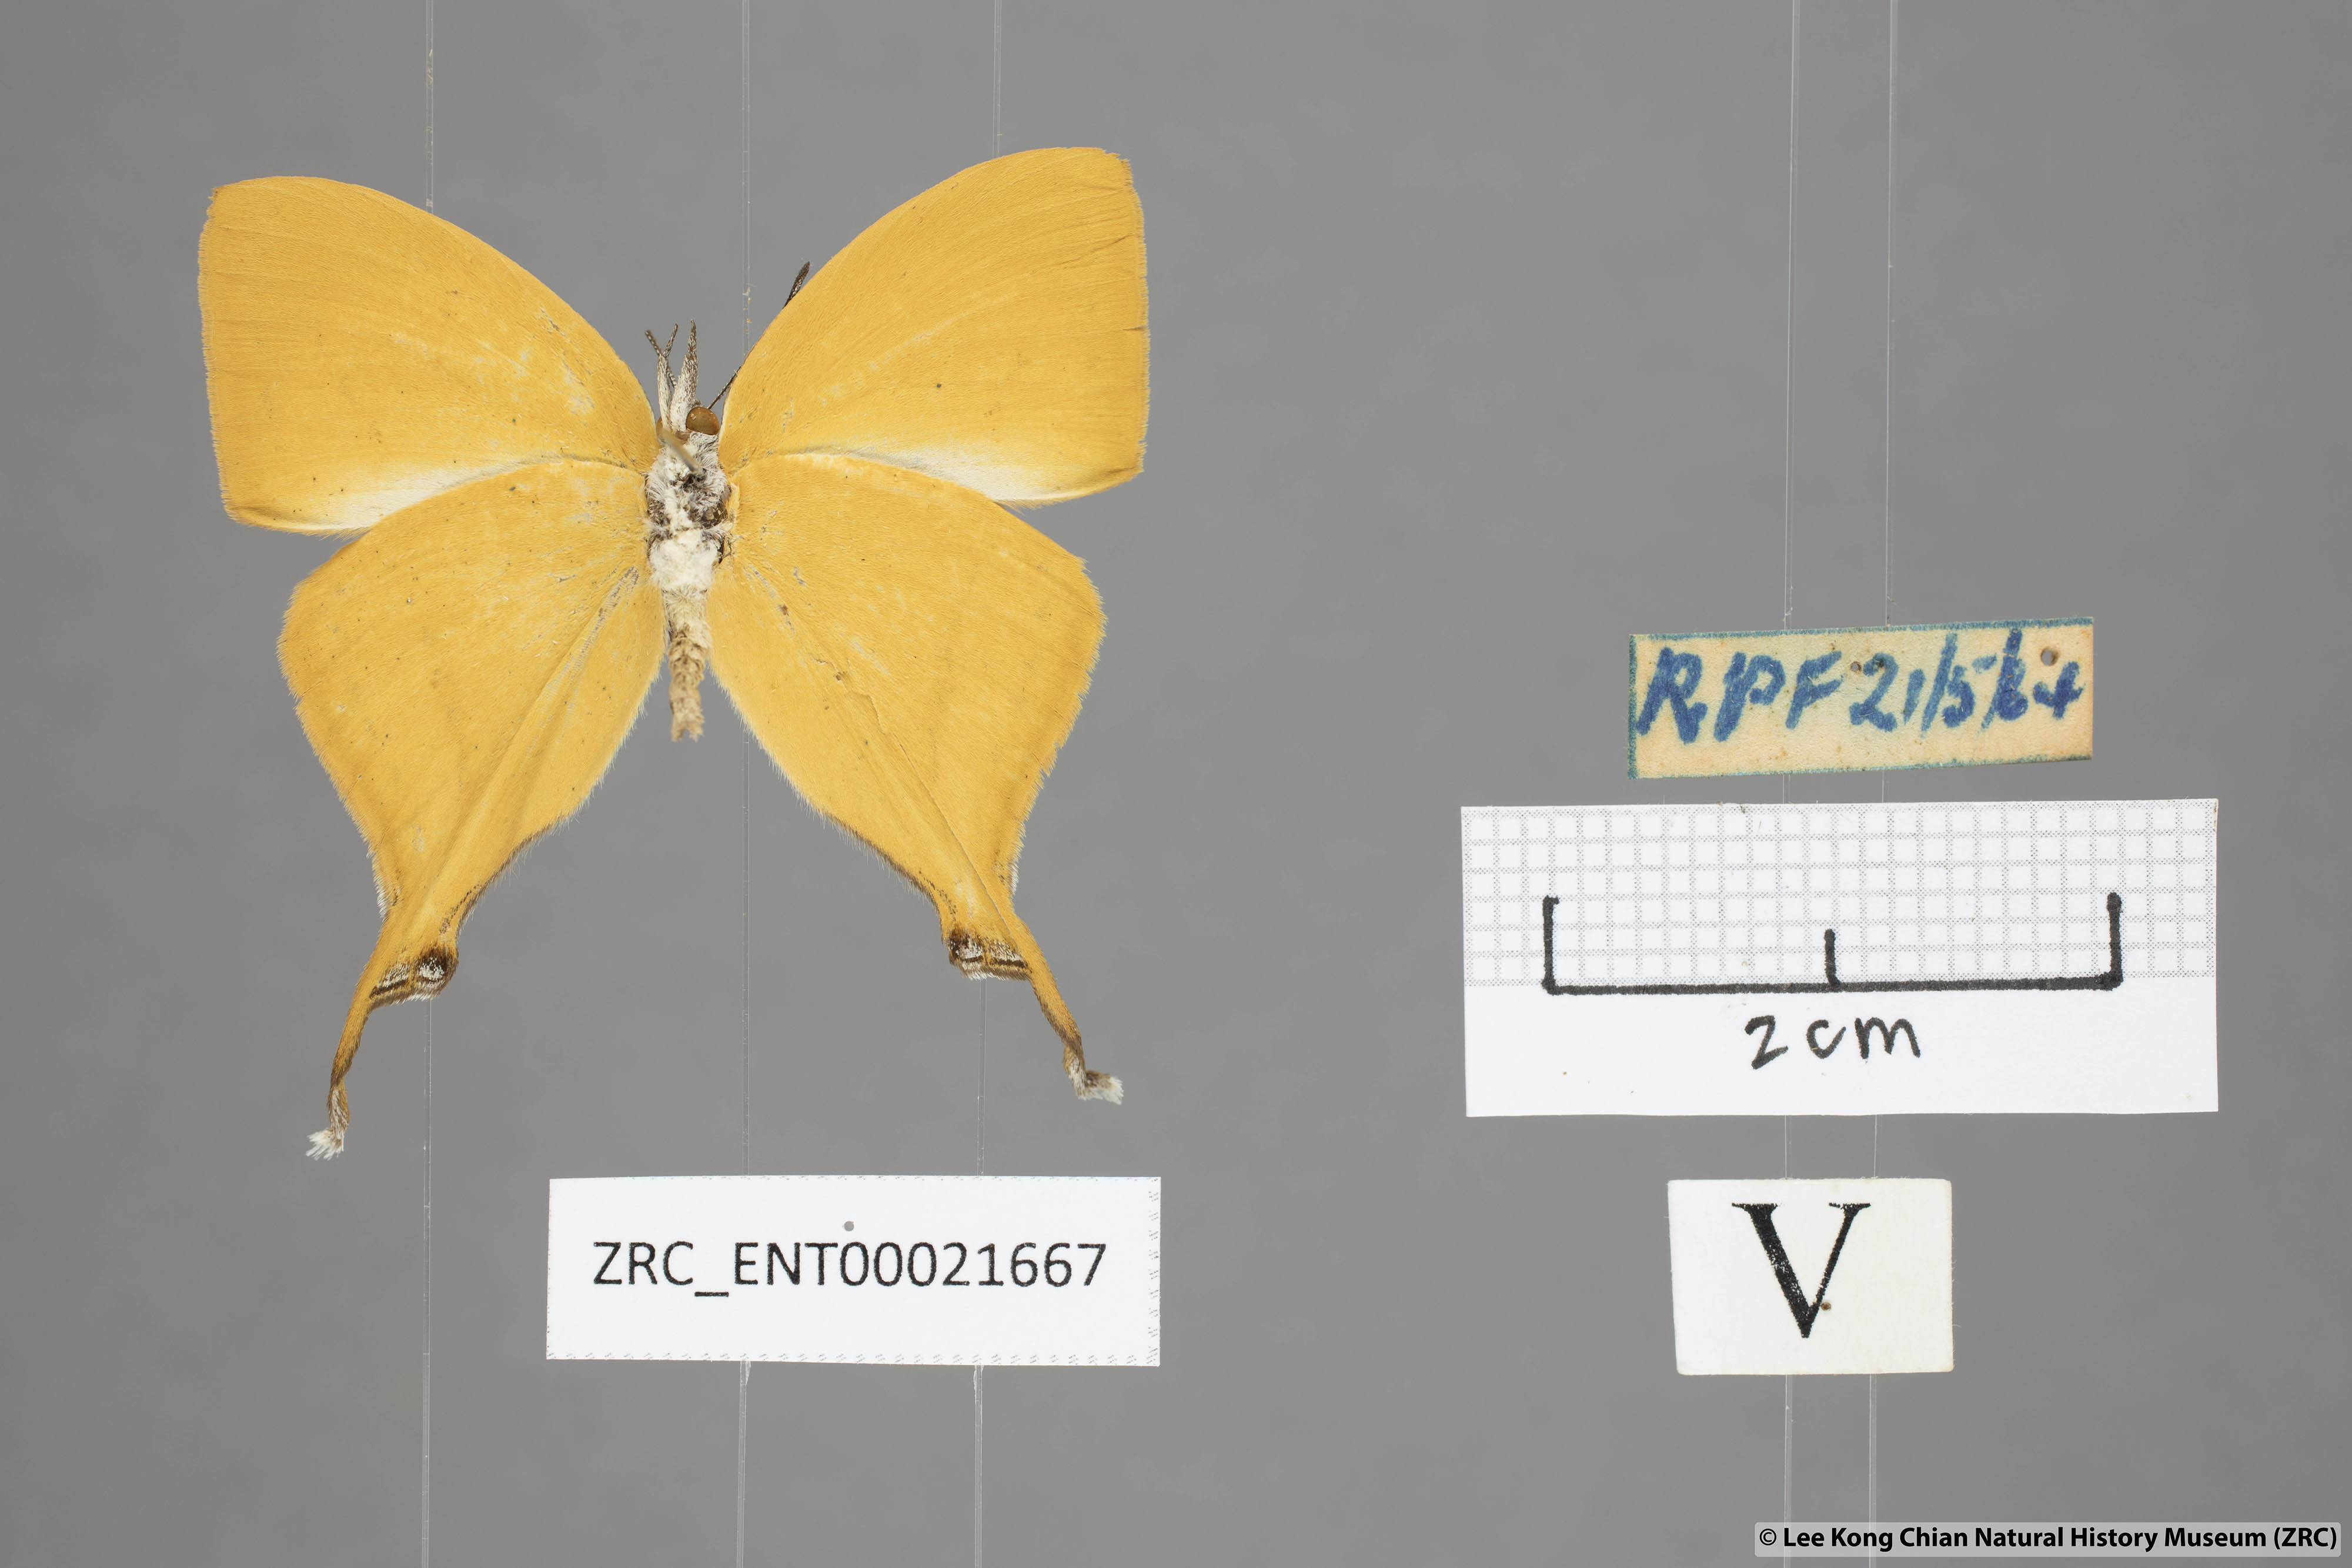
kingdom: Animalia
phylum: Arthropoda
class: Insecta
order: Lepidoptera
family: Lycaenidae
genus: Loxura
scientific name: Loxura atymnus
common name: Common yamfly
